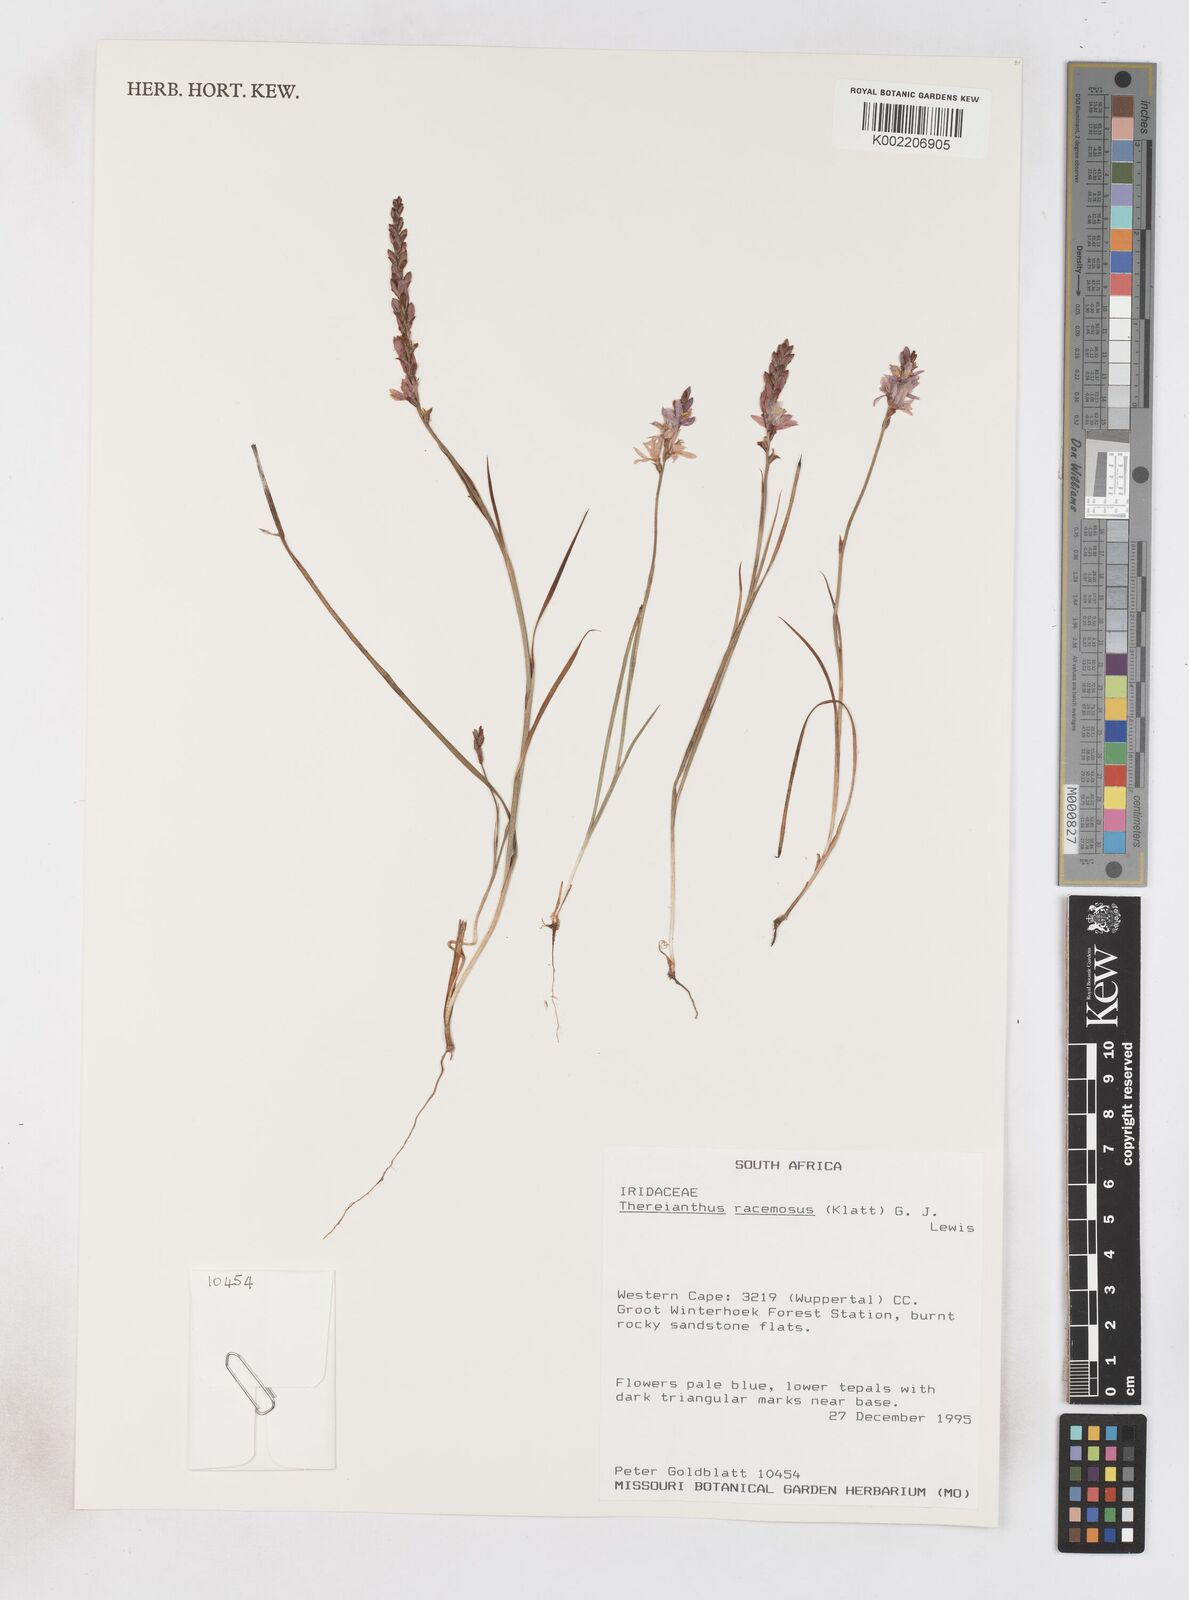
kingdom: Plantae
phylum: Tracheophyta
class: Liliopsida
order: Asparagales
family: Iridaceae
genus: Micranthus
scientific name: Micranthus thereianthoides
